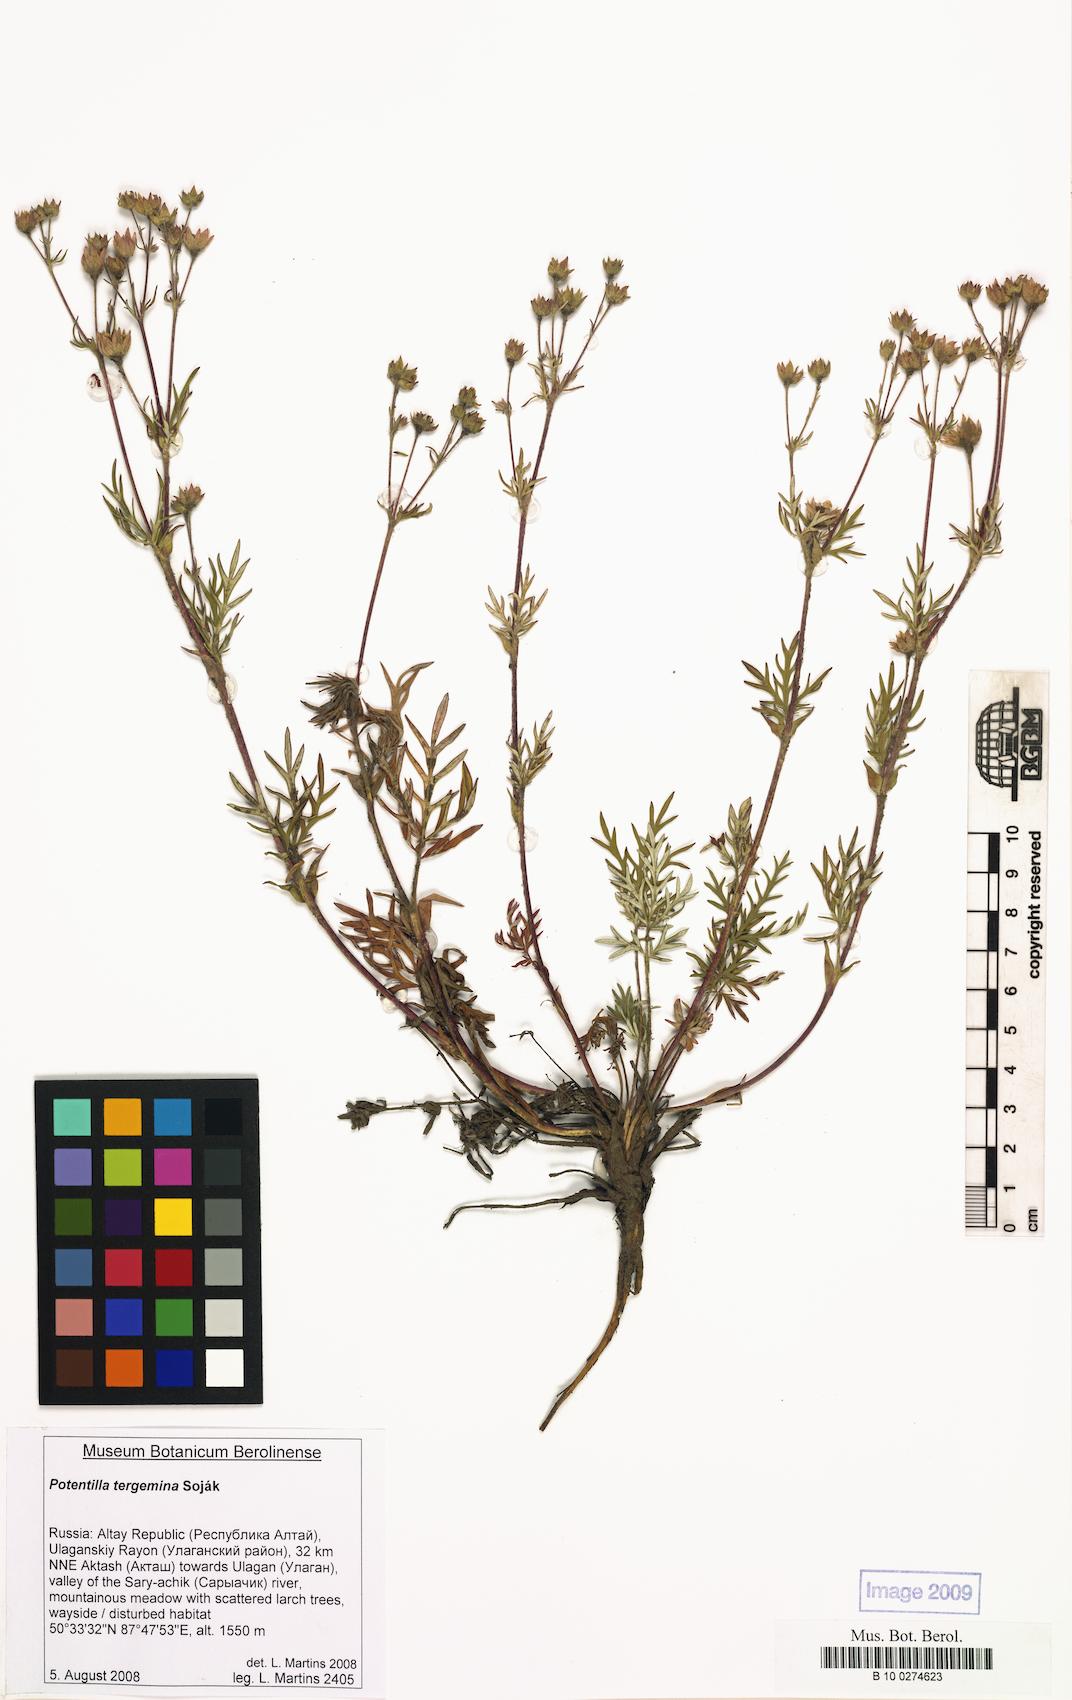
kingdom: Plantae
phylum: Tracheophyta
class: Magnoliopsida
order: Rosales
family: Rosaceae
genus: Potentilla
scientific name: Potentilla tergemina
